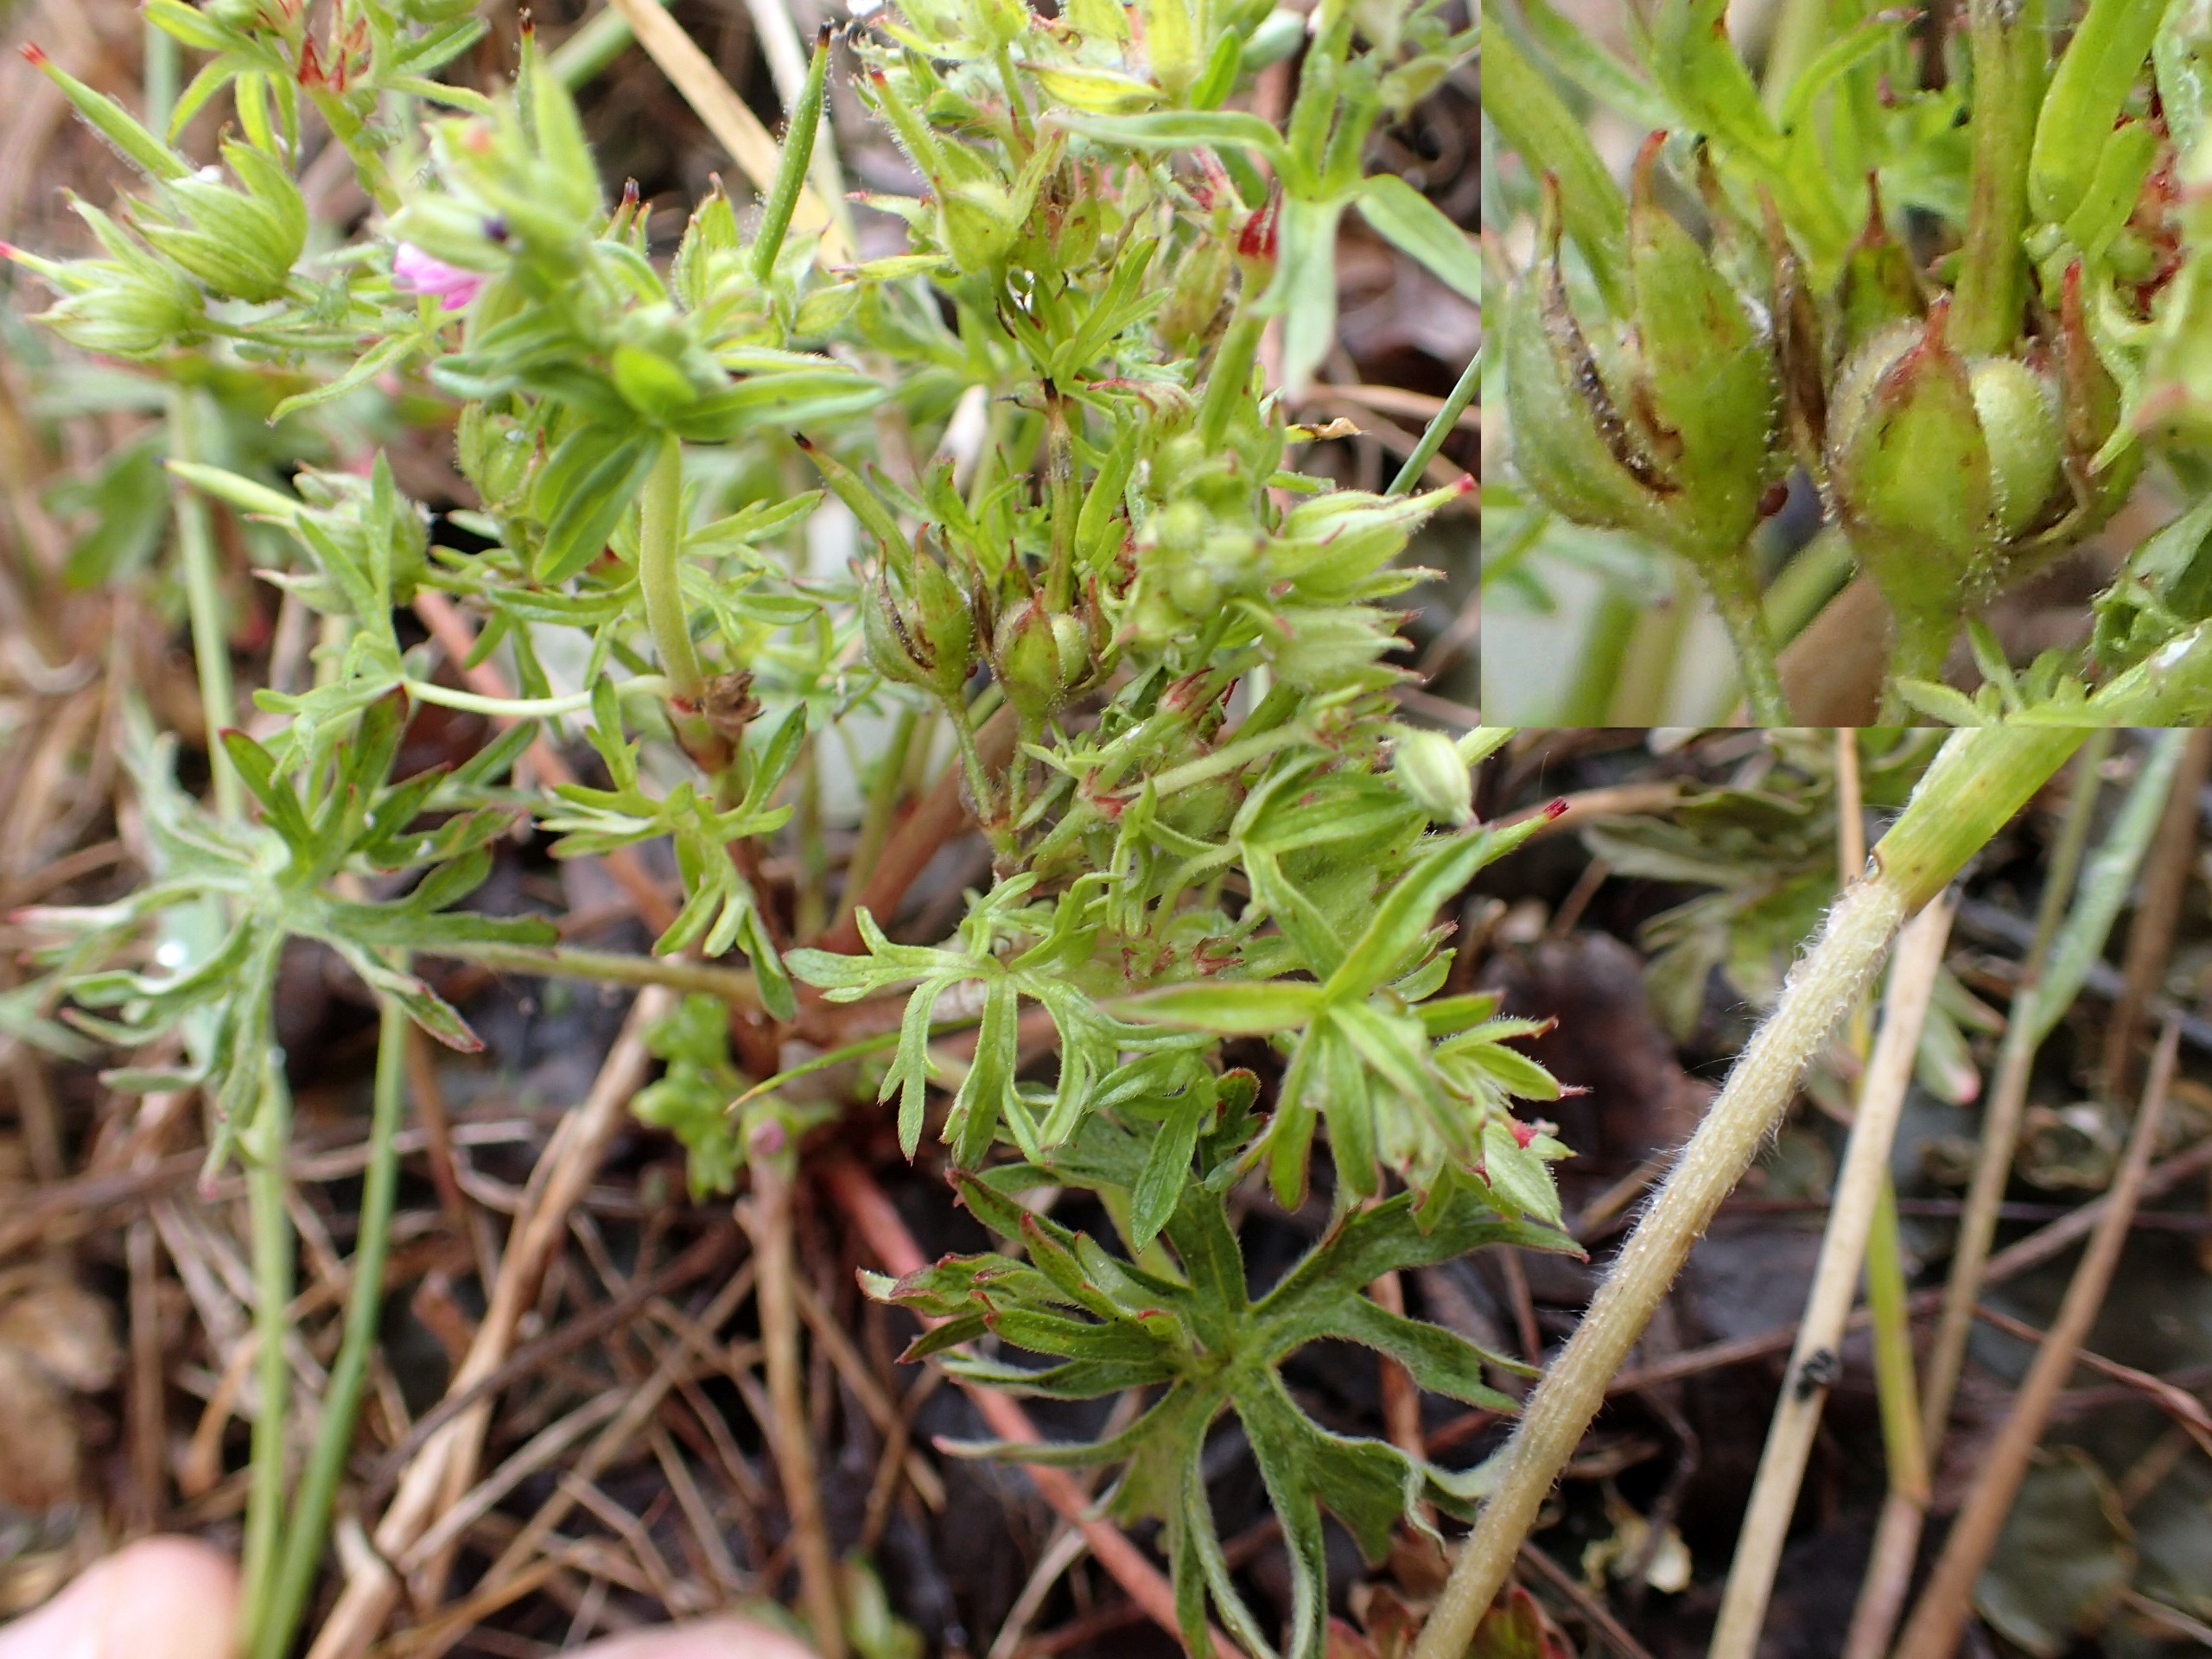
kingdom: Plantae
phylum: Tracheophyta
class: Magnoliopsida
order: Geraniales
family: Geraniaceae
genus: Geranium
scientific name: Geranium dissectum
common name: Kløftet storkenæb
